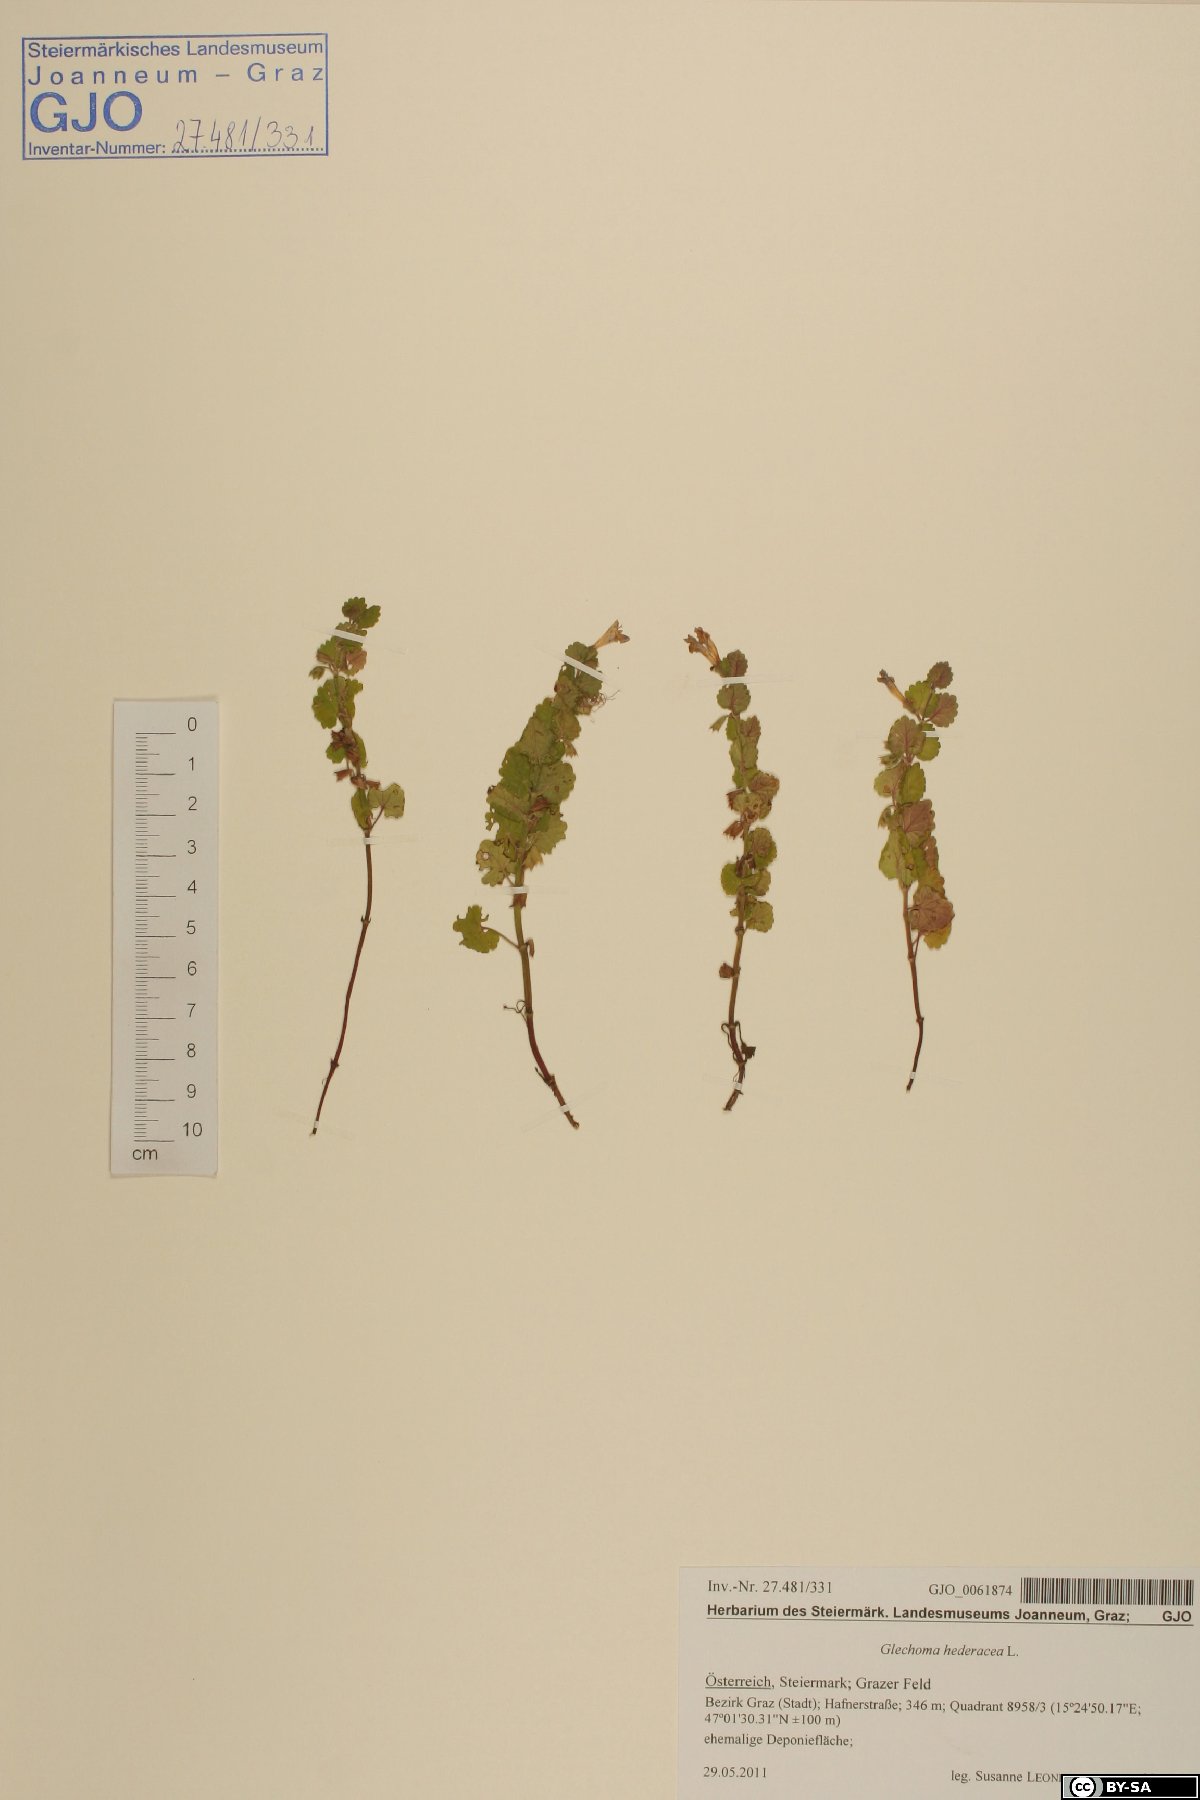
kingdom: Plantae
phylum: Tracheophyta
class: Magnoliopsida
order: Lamiales
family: Lamiaceae
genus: Glechoma
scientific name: Glechoma hederacea
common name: Ground ivy
